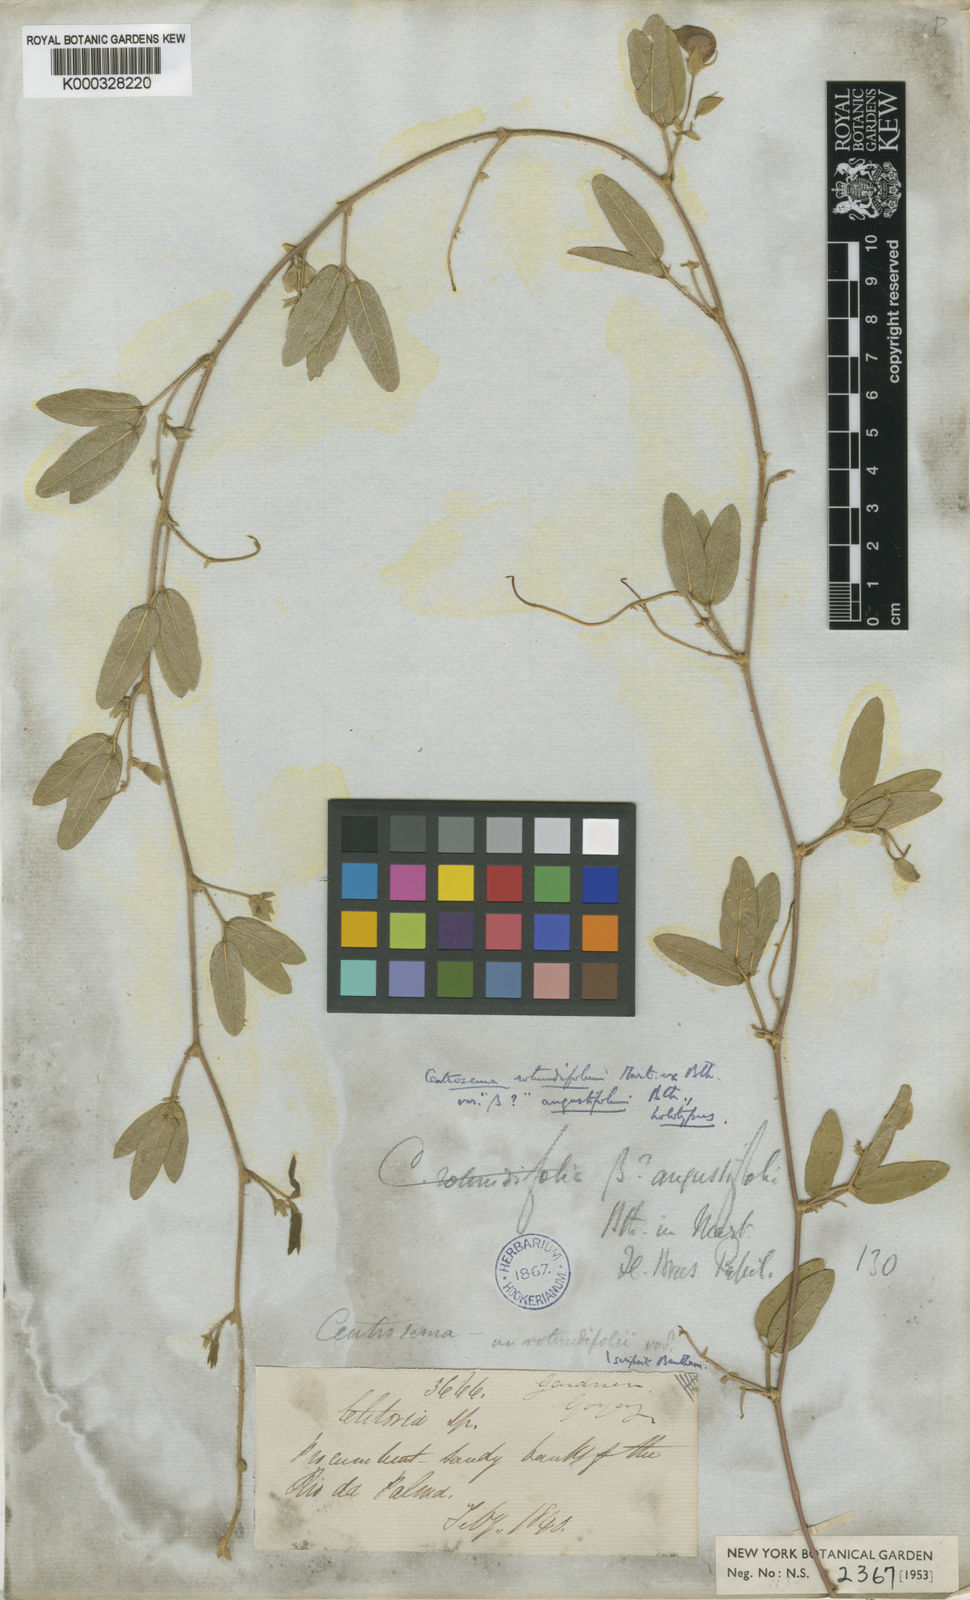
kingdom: Plantae
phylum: Tracheophyta
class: Magnoliopsida
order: Fabales
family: Fabaceae
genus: Centrosema
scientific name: Centrosema rotundifolium
